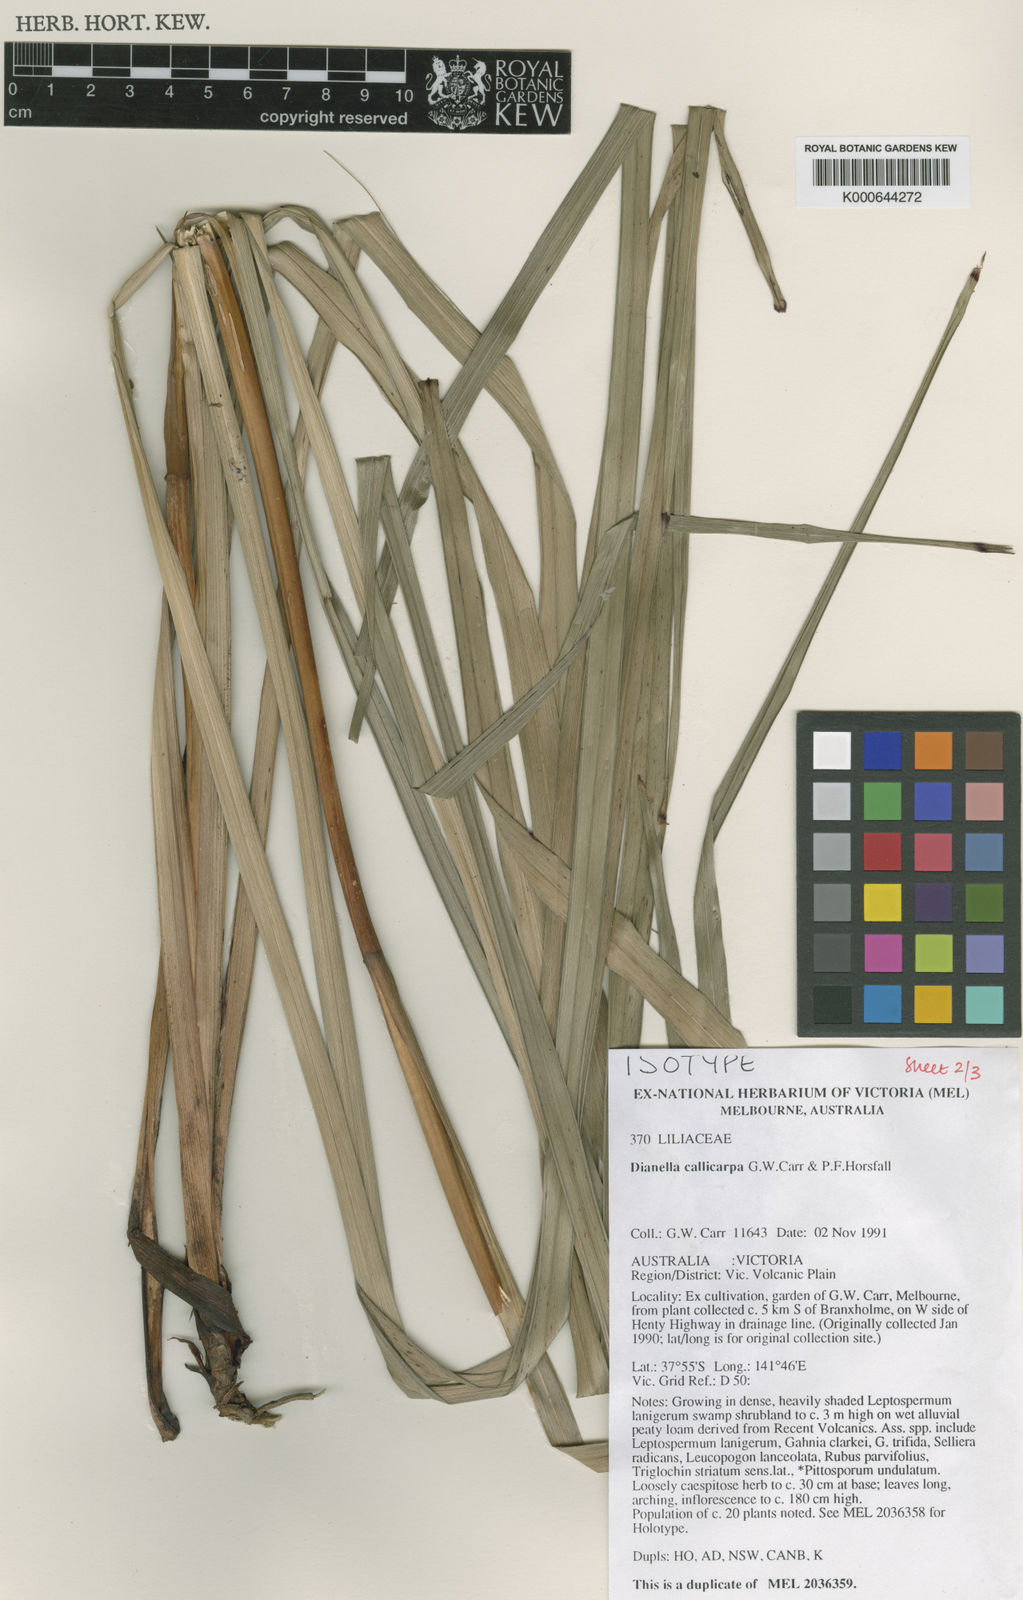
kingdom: Plantae
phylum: Tracheophyta
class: Liliopsida
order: Asparagales
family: Asphodelaceae
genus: Dianella
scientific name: Dianella callicarpa
